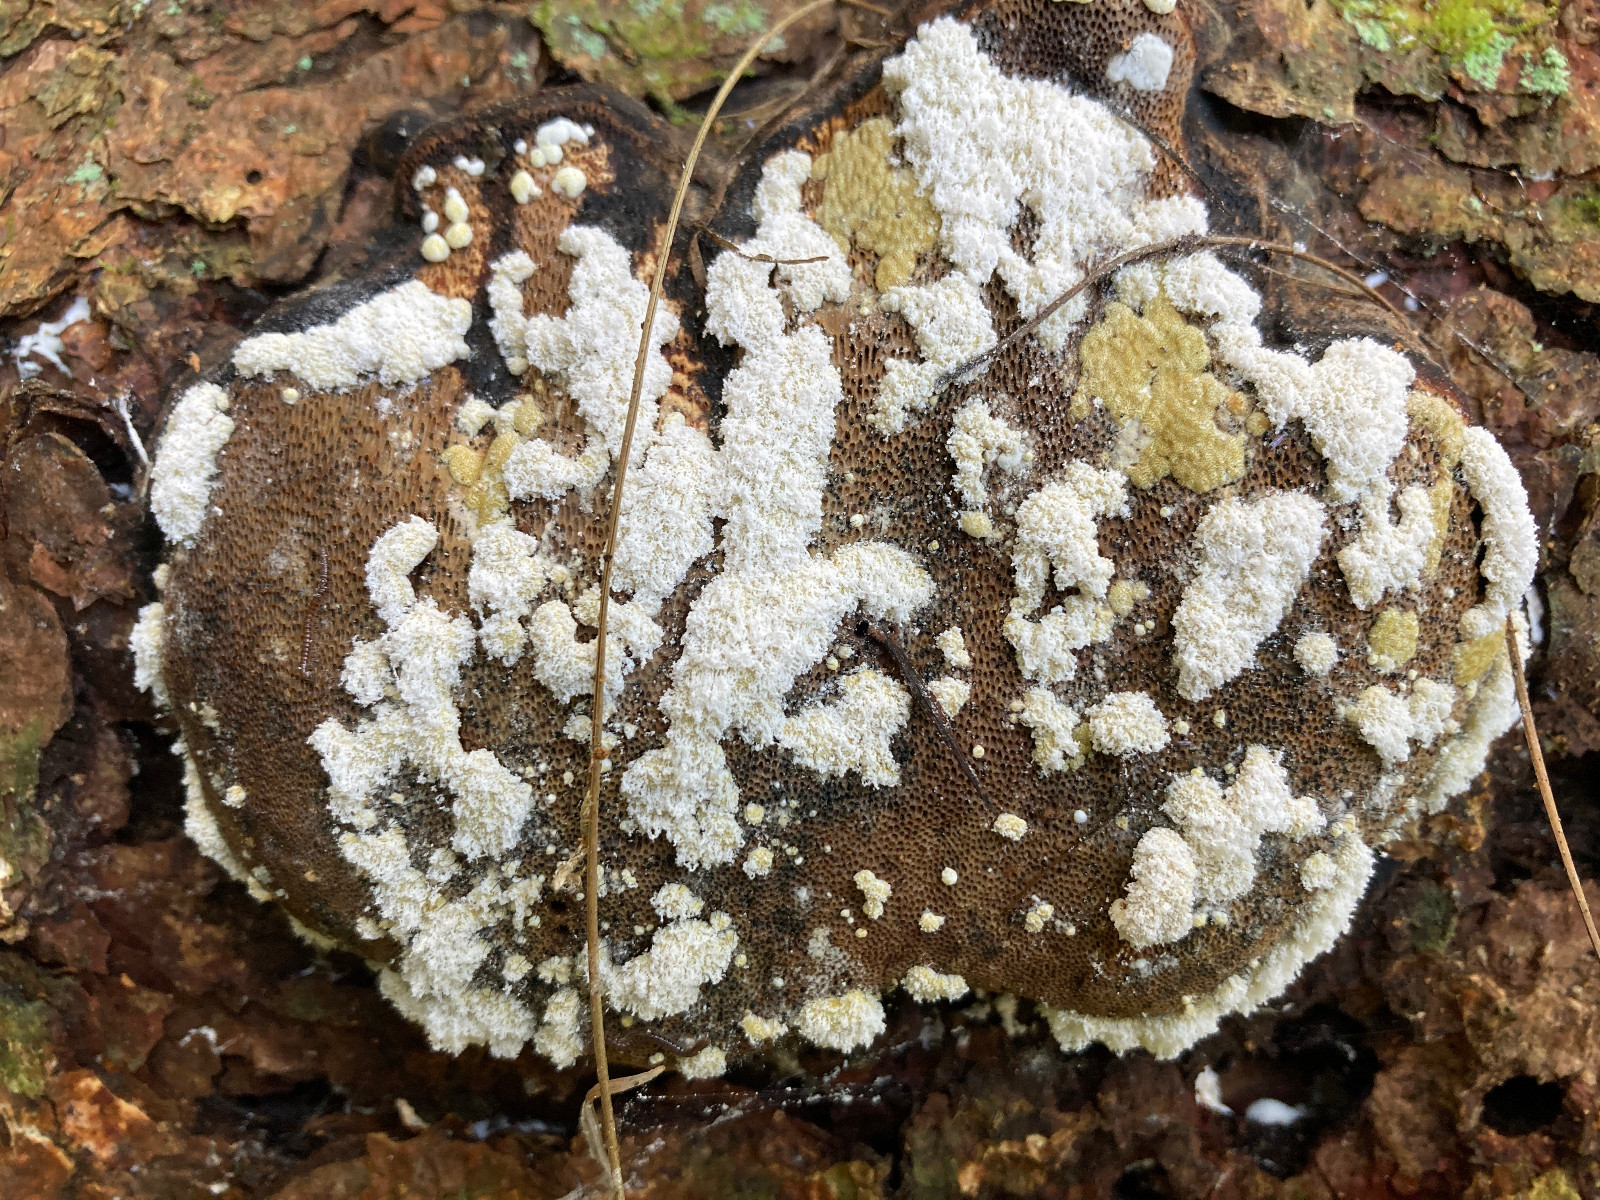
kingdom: Fungi
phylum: Ascomycota
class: Sordariomycetes
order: Hypocreales
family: Hypocreaceae
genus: Trichoderma
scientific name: Trichoderma pulvinatum
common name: snyltende kødkerne
